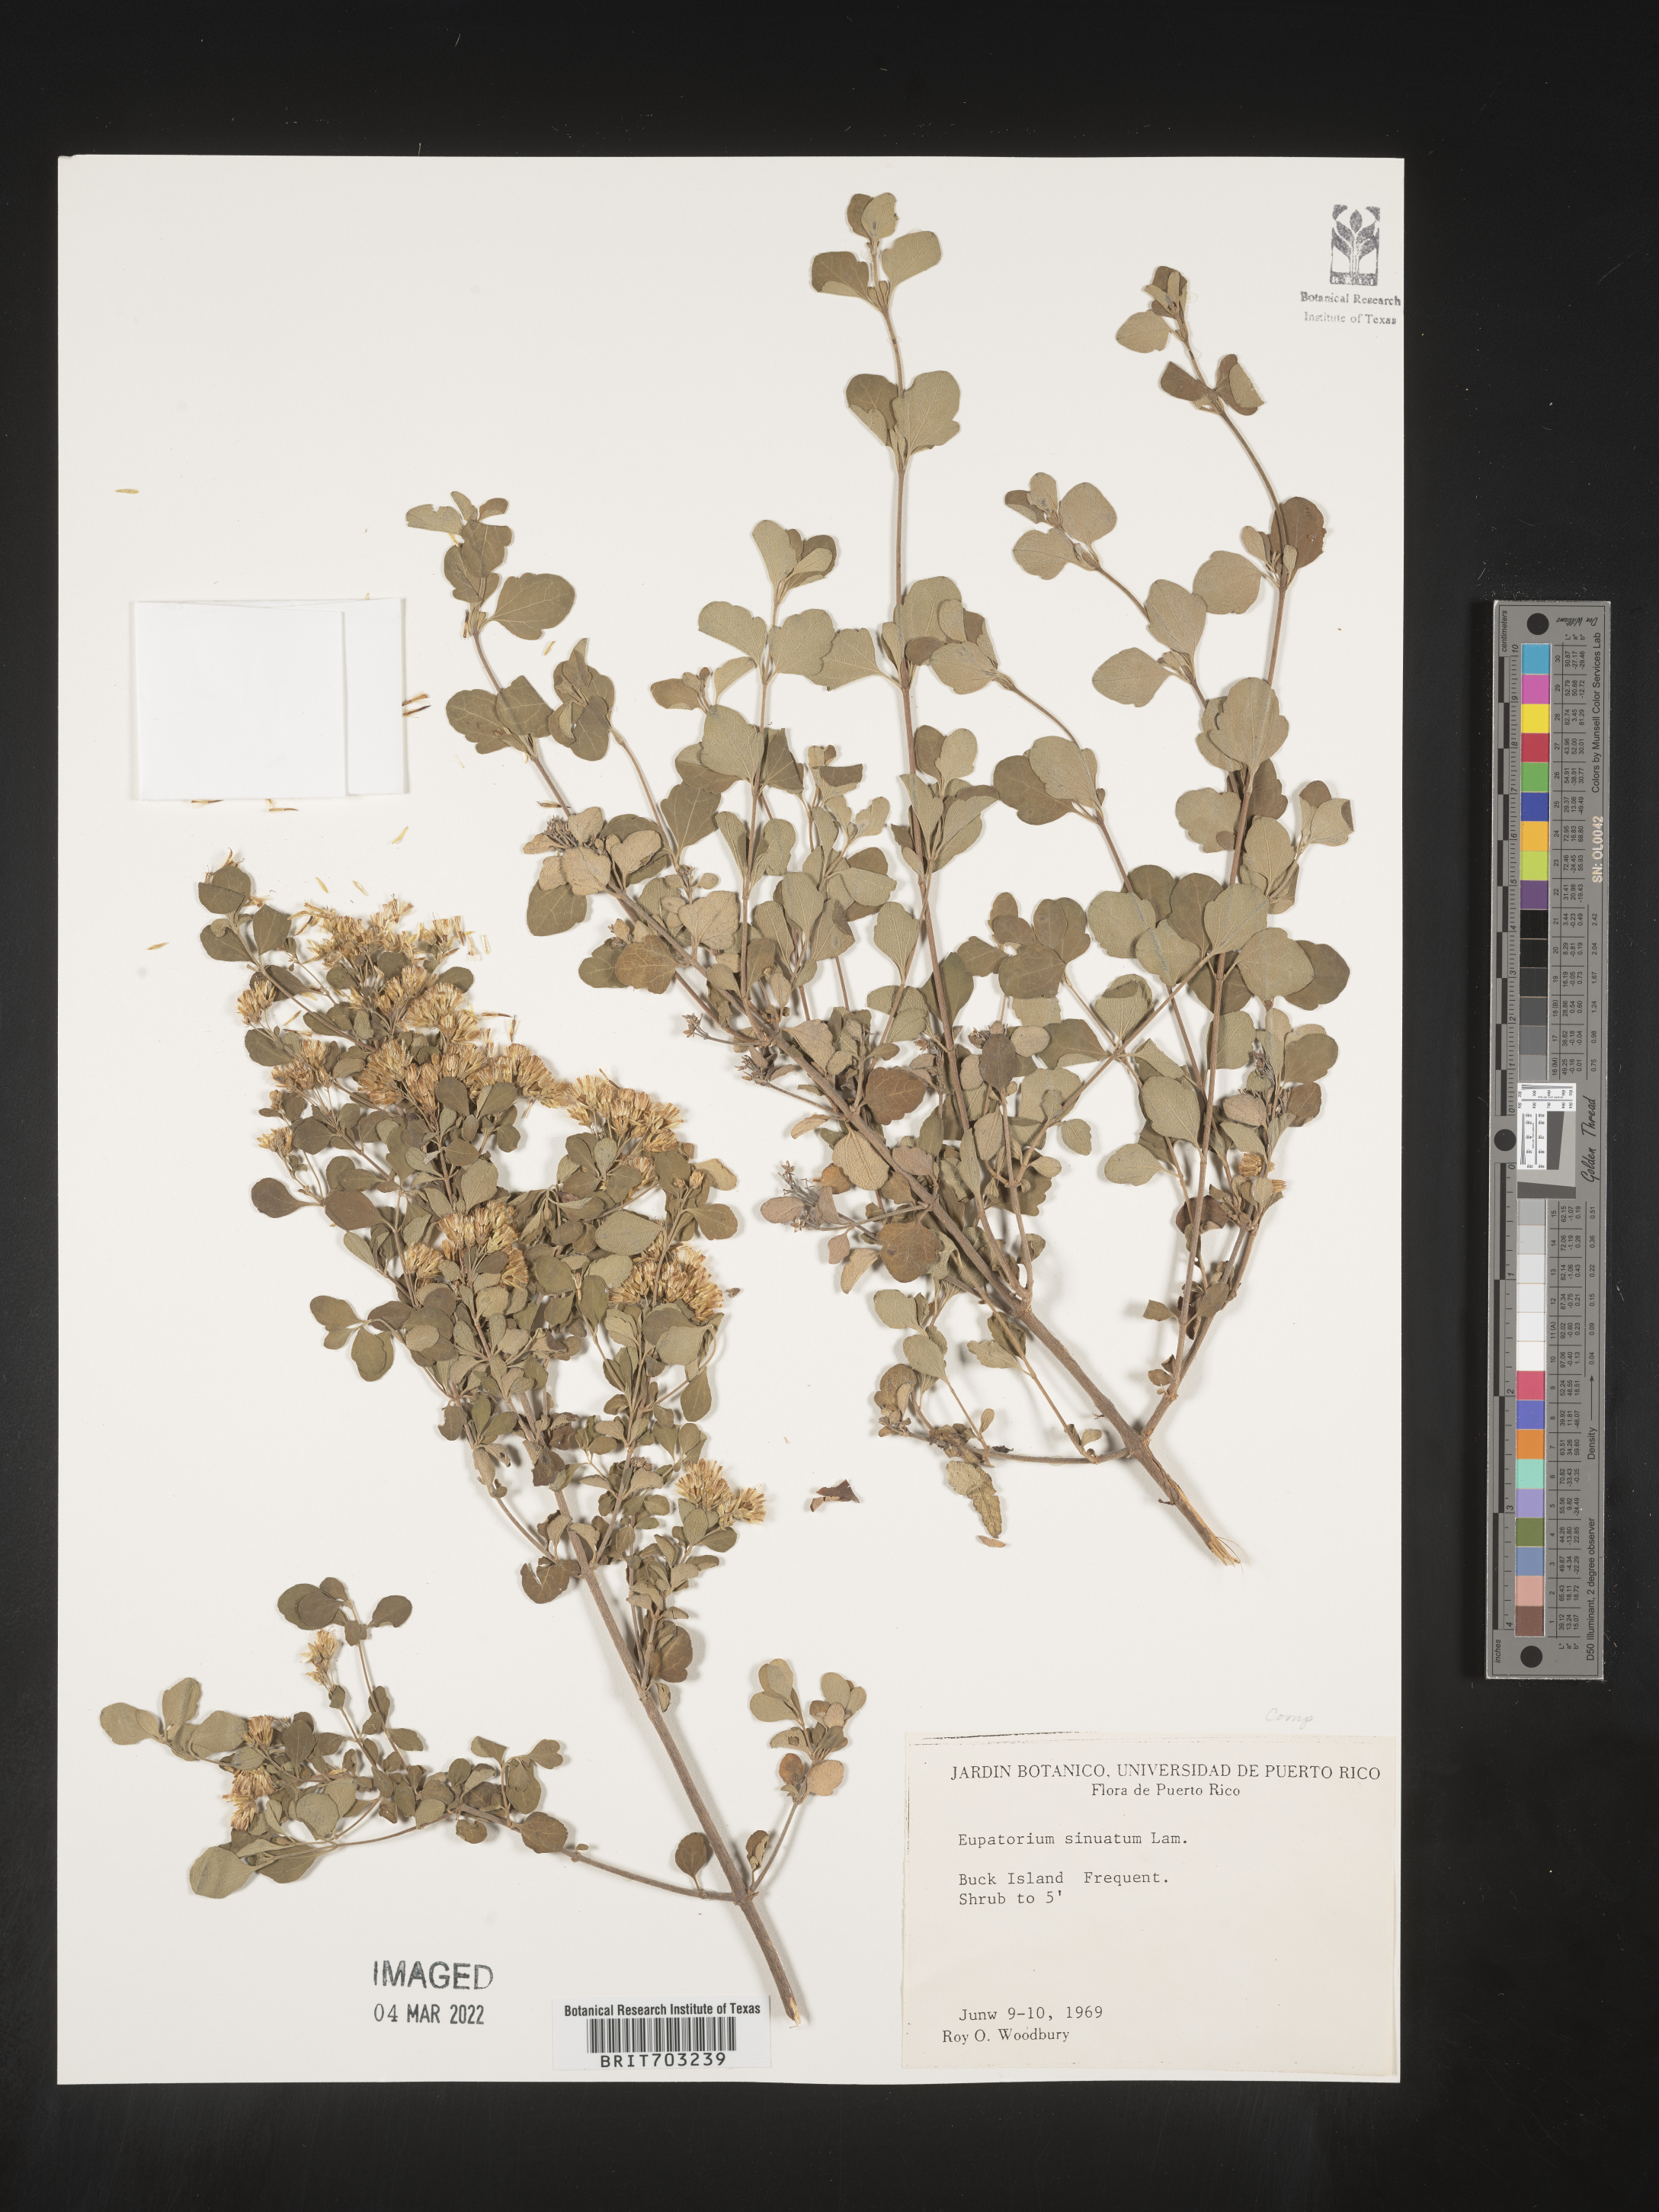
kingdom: Plantae
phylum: Tracheophyta
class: Magnoliopsida
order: Asterales
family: Asteraceae
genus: Eupatorium
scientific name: Eupatorium
